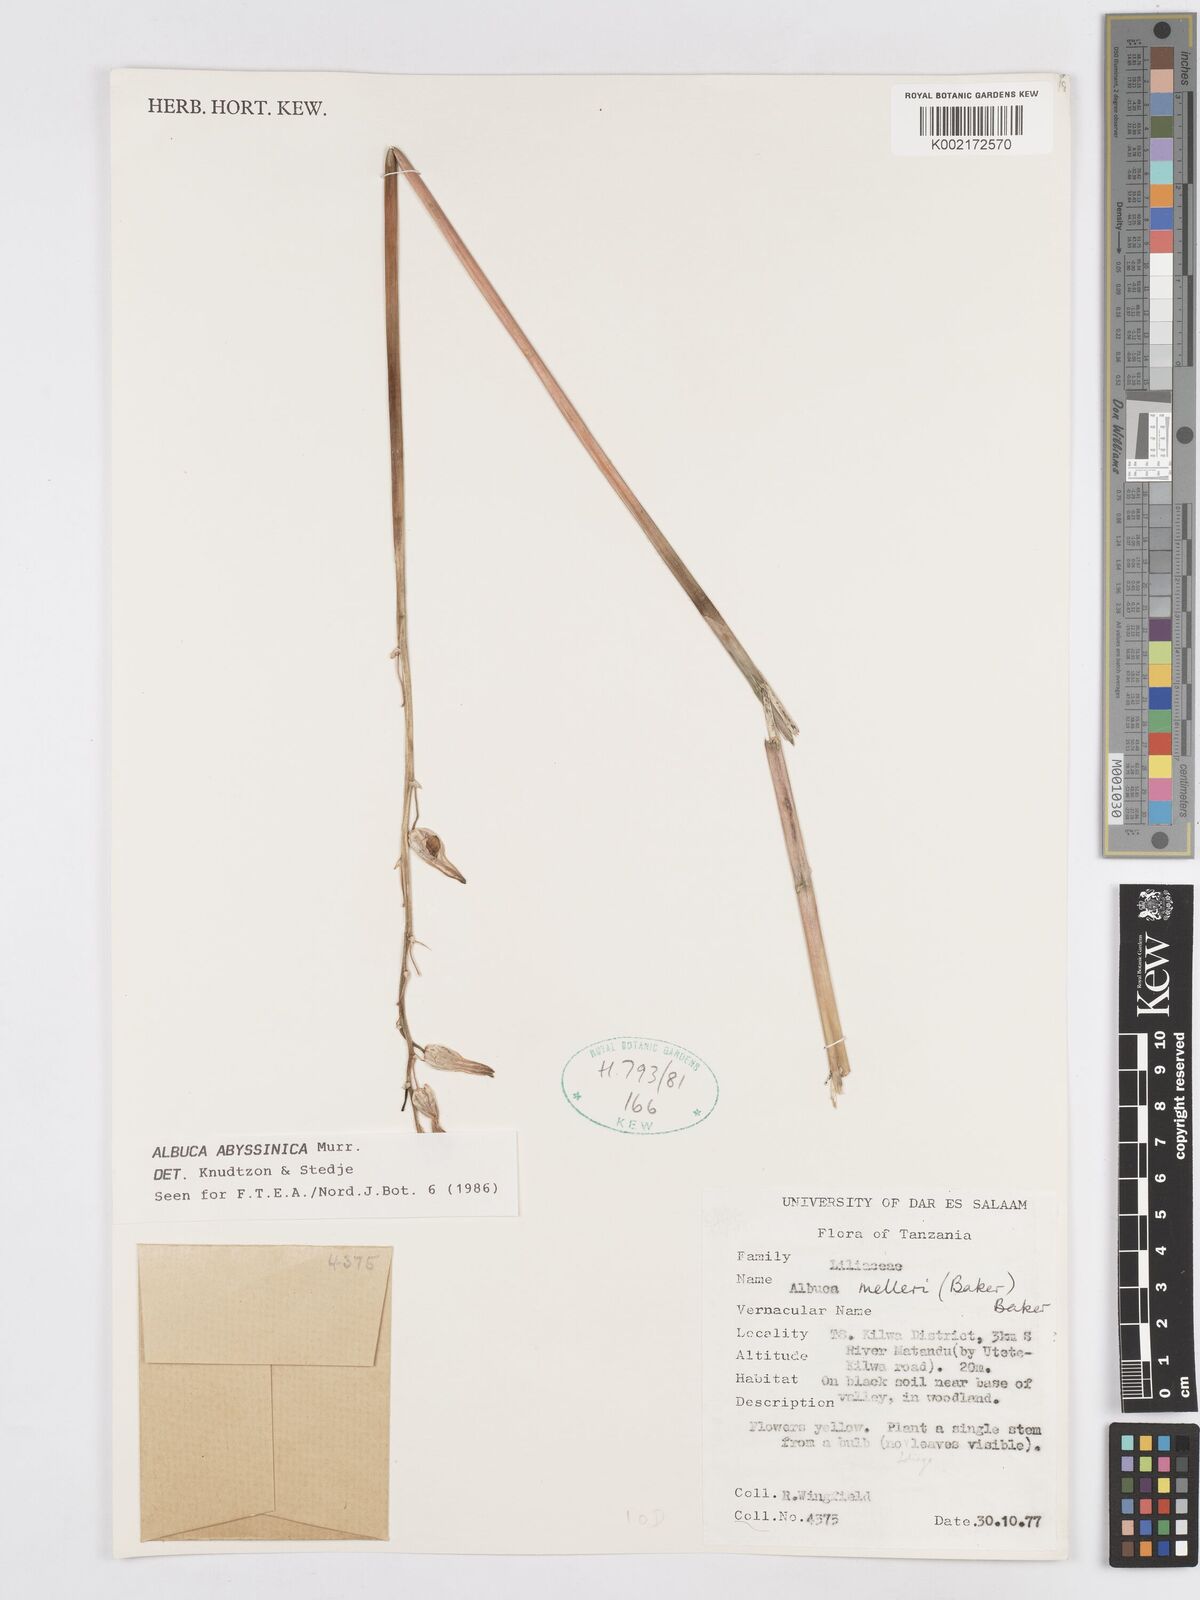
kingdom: Plantae
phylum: Tracheophyta
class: Liliopsida
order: Asparagales
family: Asparagaceae
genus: Albuca
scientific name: Albuca abyssinica
